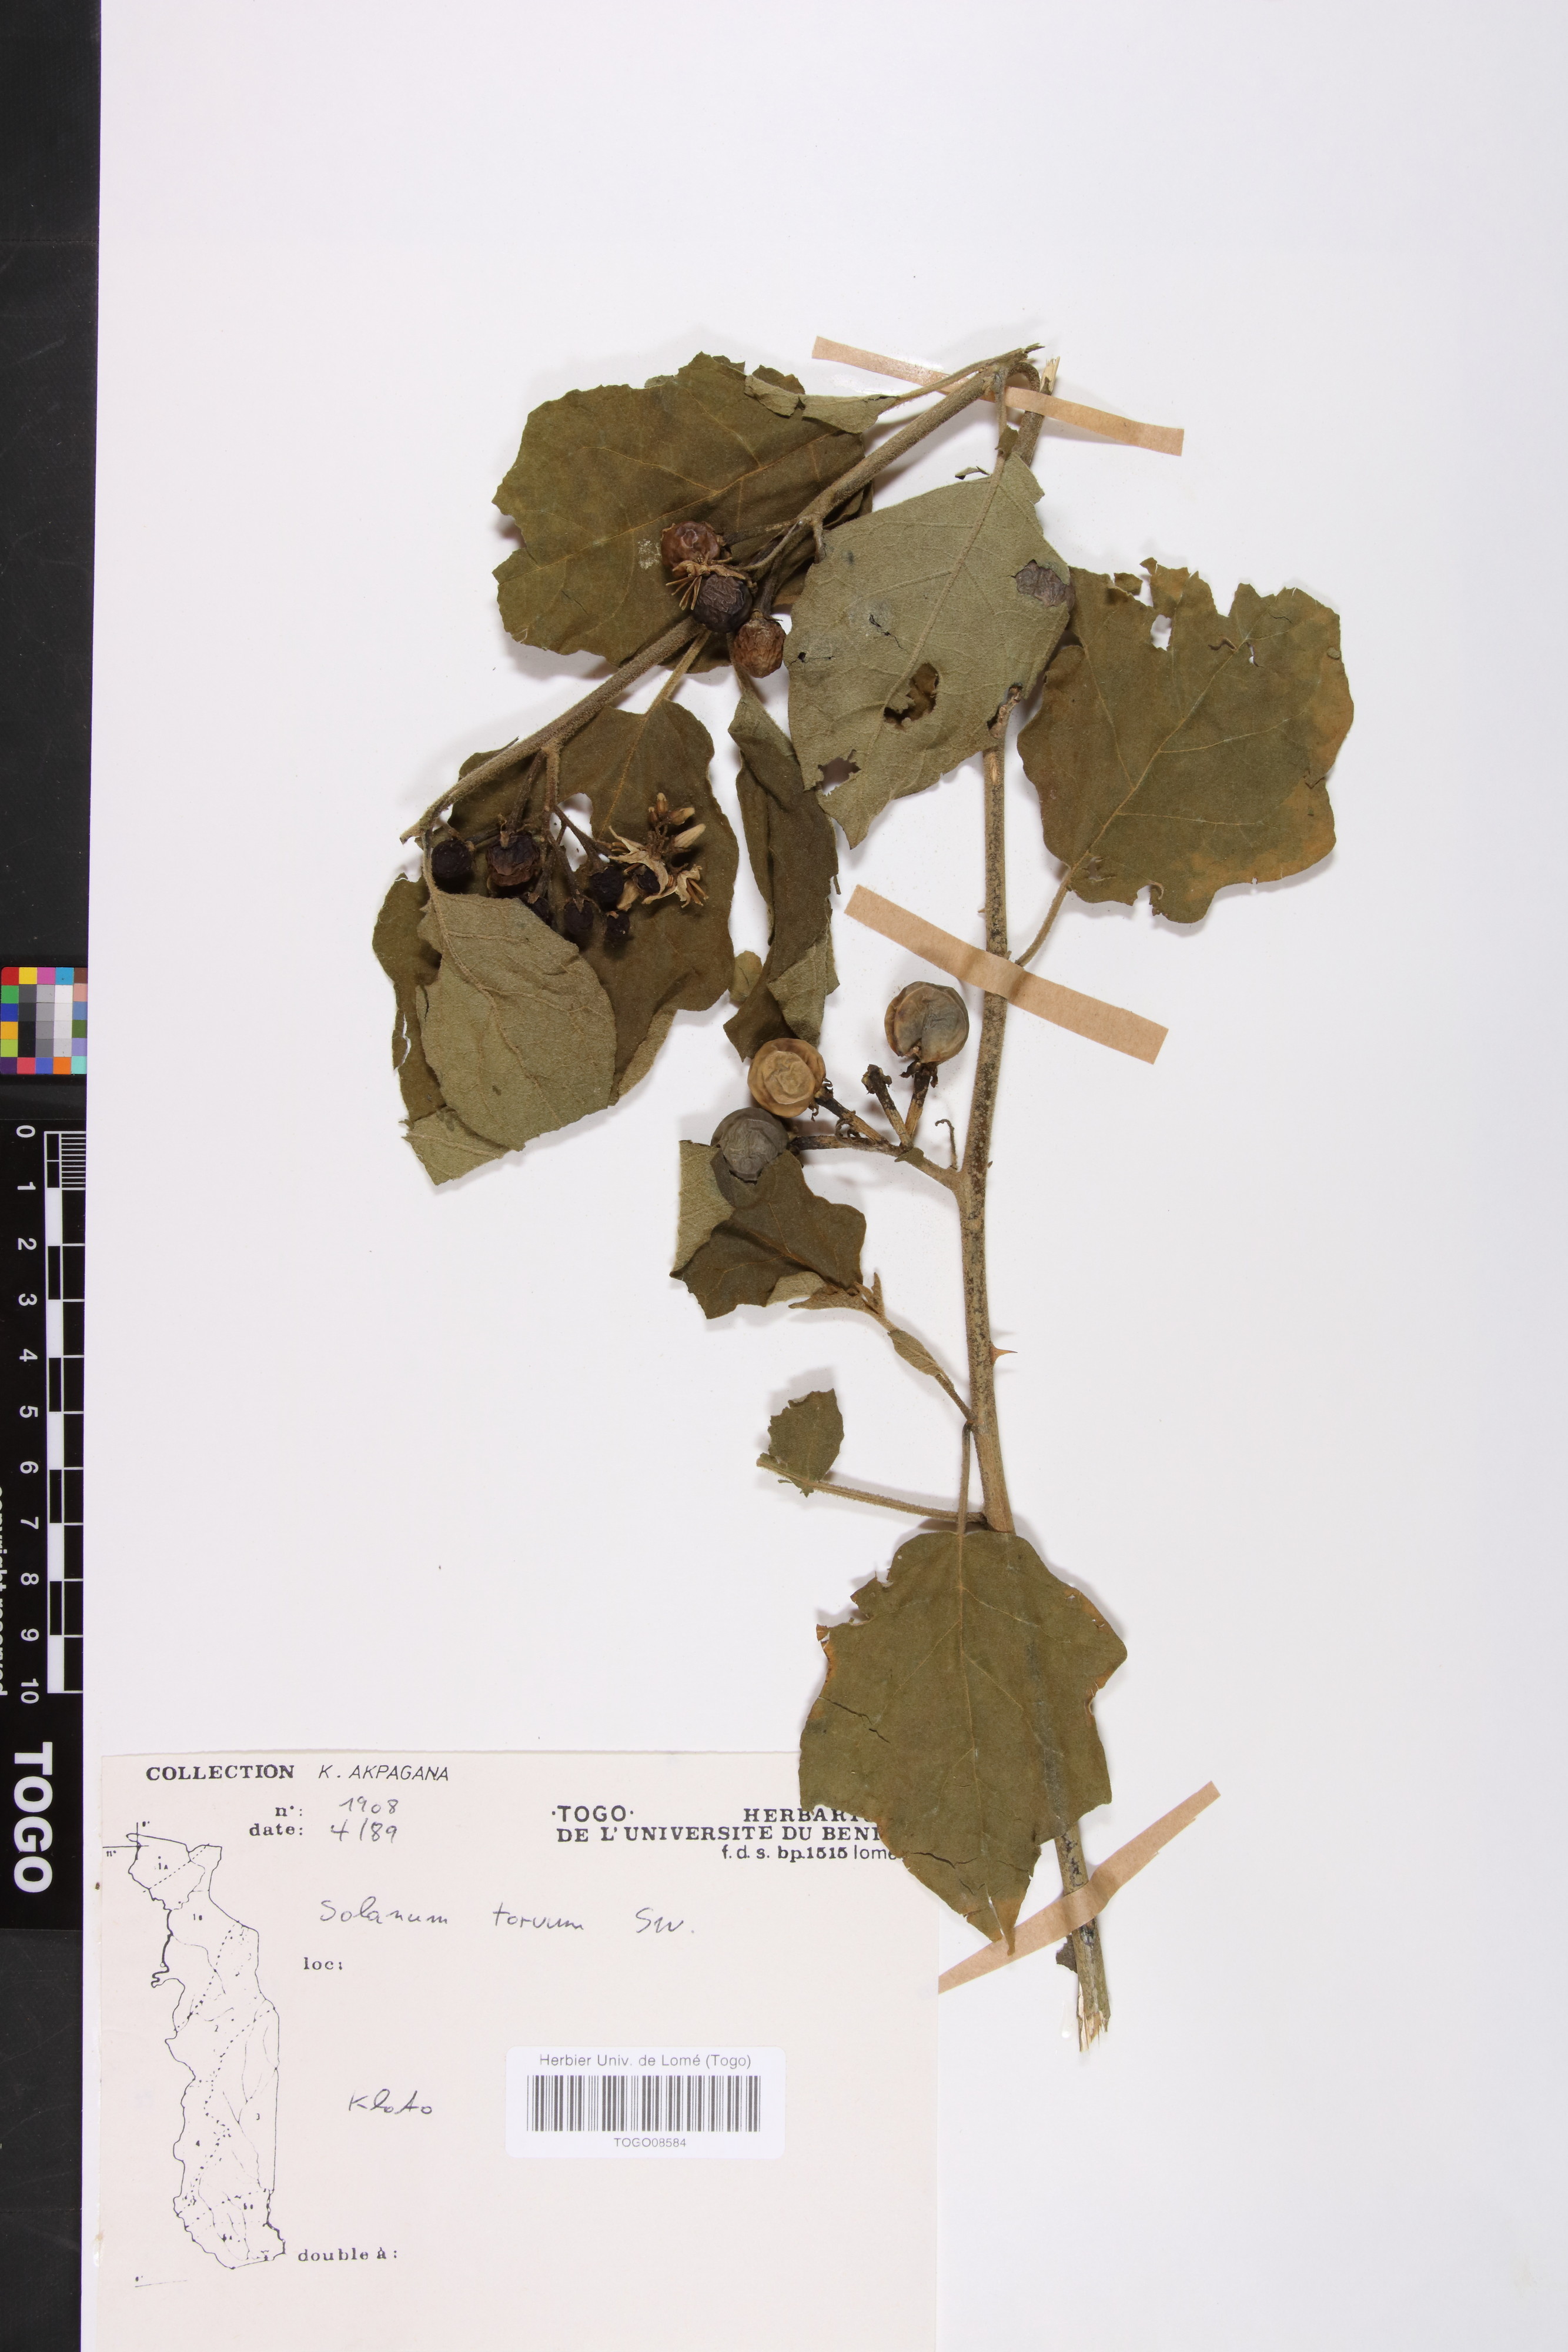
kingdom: Plantae
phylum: Tracheophyta
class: Magnoliopsida
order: Solanales
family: Solanaceae
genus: Solanum
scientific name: Solanum torvum
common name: Turkey berry
